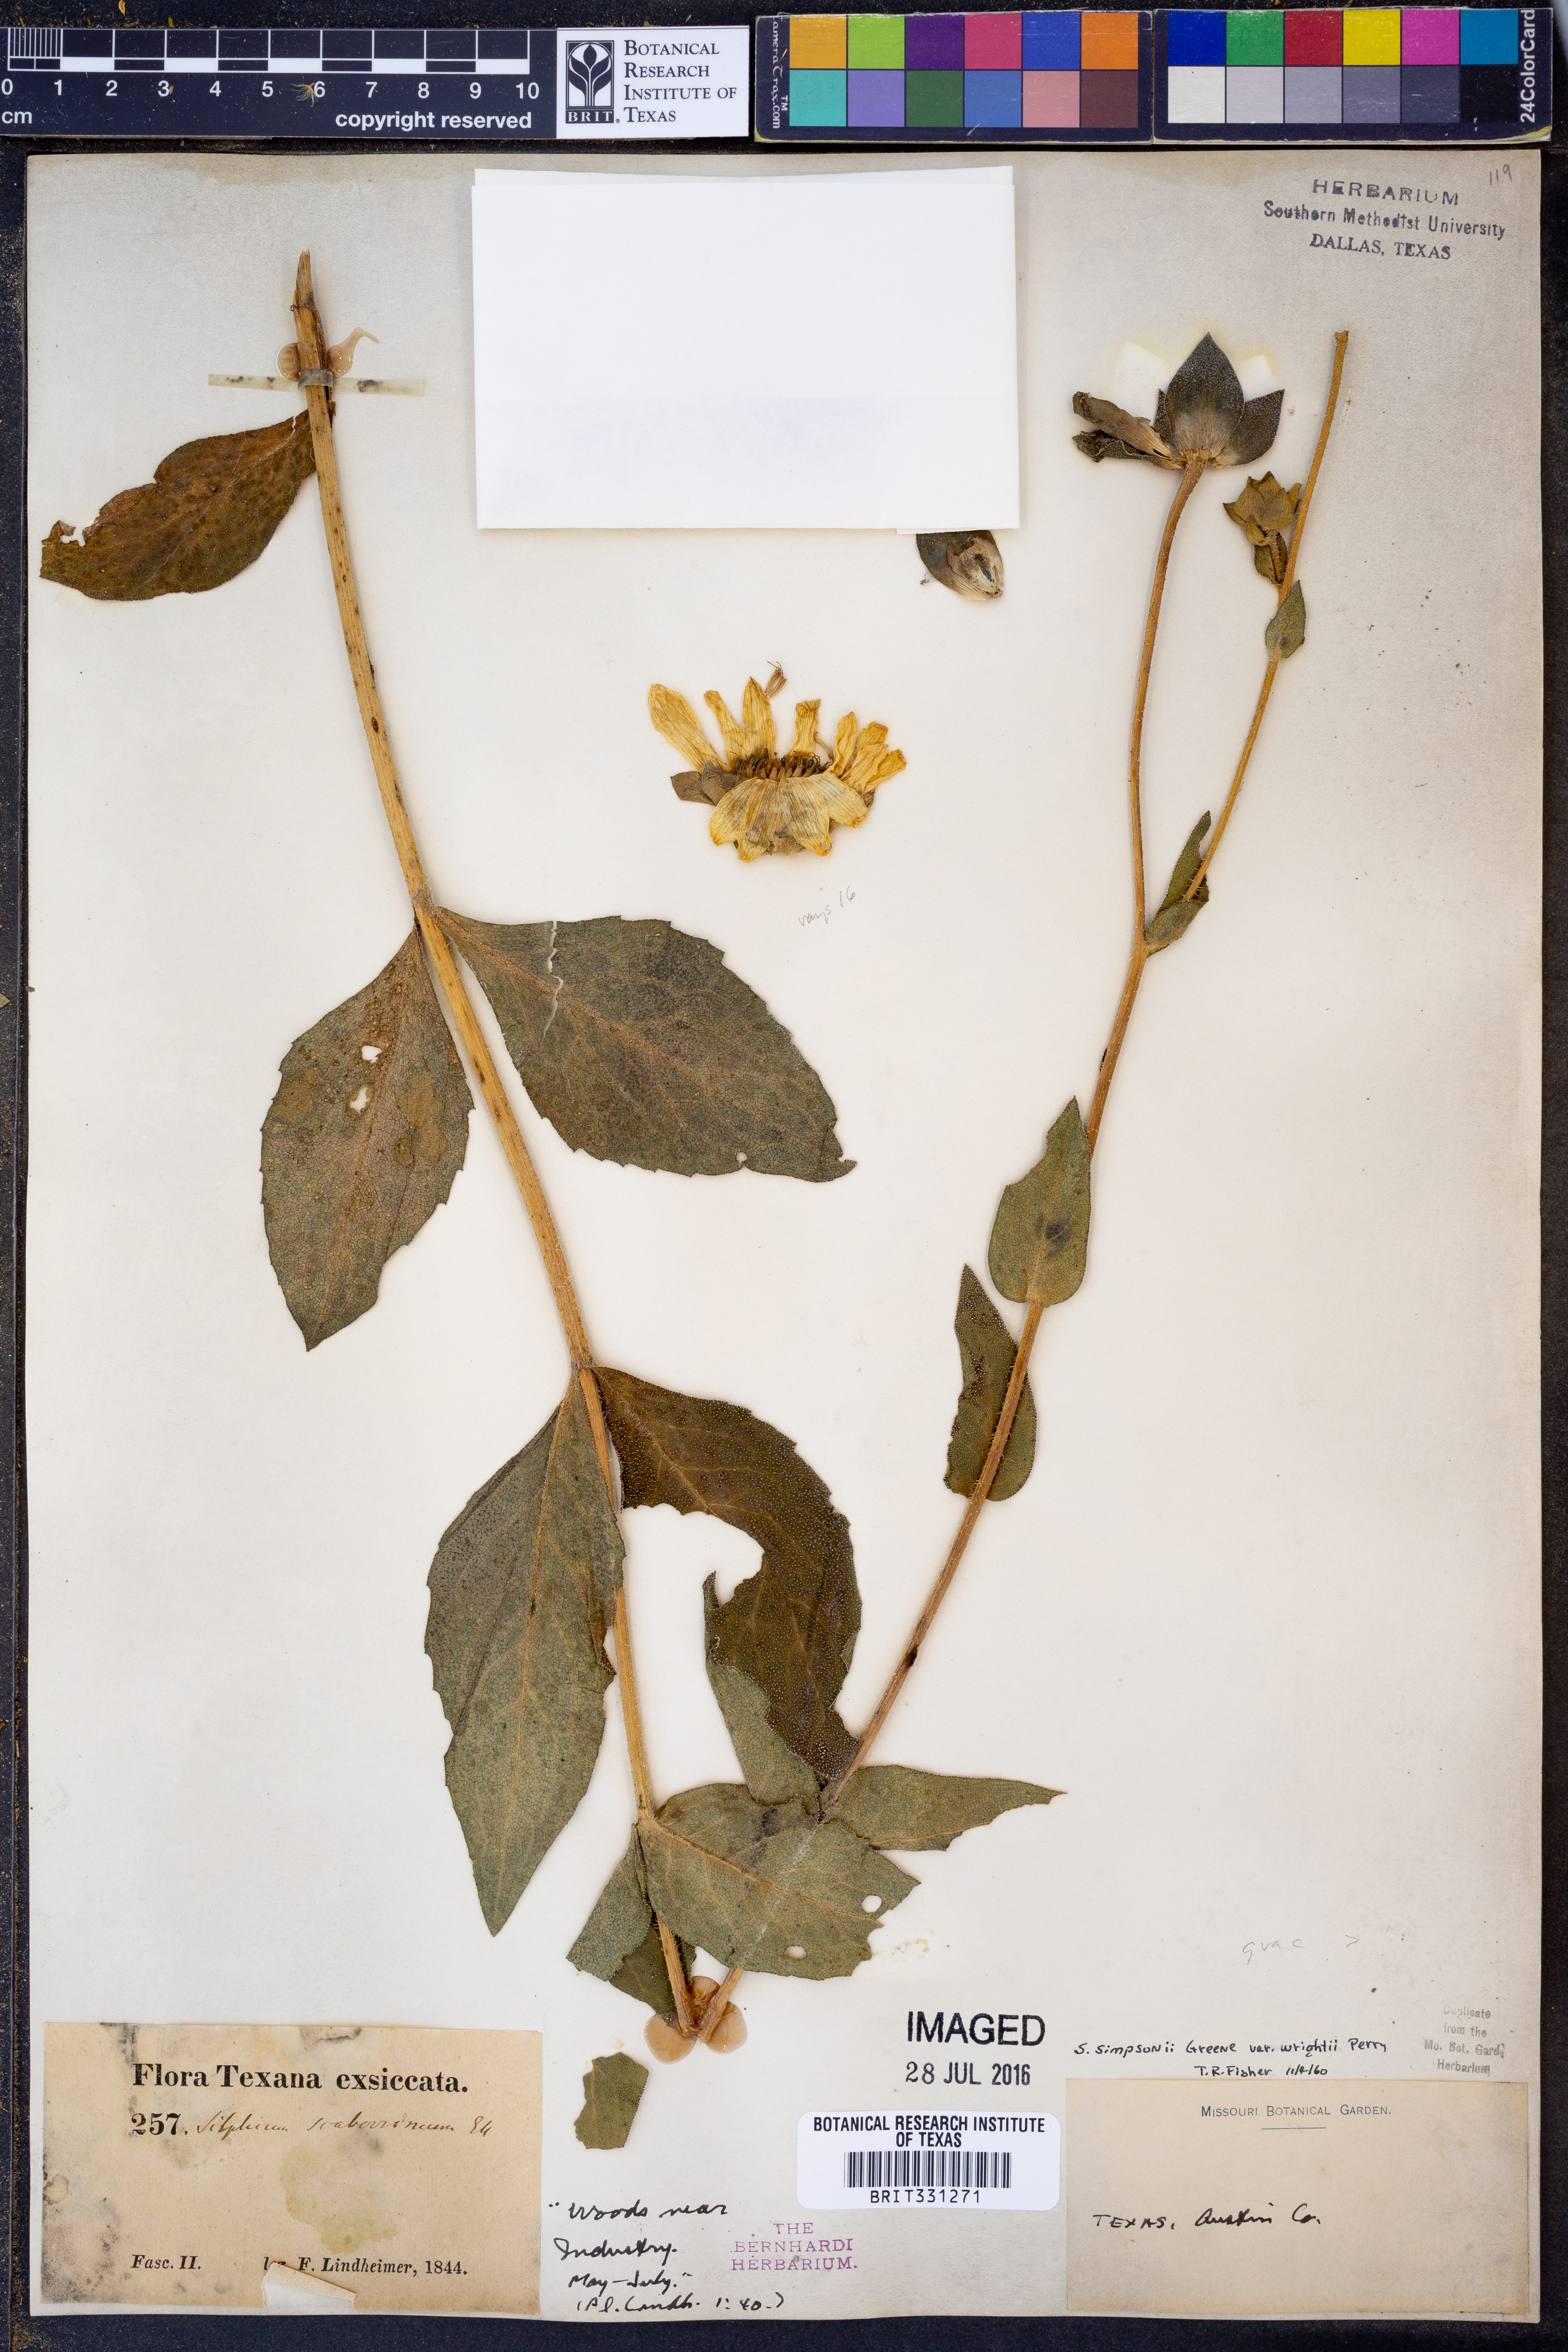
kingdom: Plantae
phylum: Tracheophyta
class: Magnoliopsida
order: Asterales
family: Asteraceae
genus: Silphium
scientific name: Silphium asteriscus
